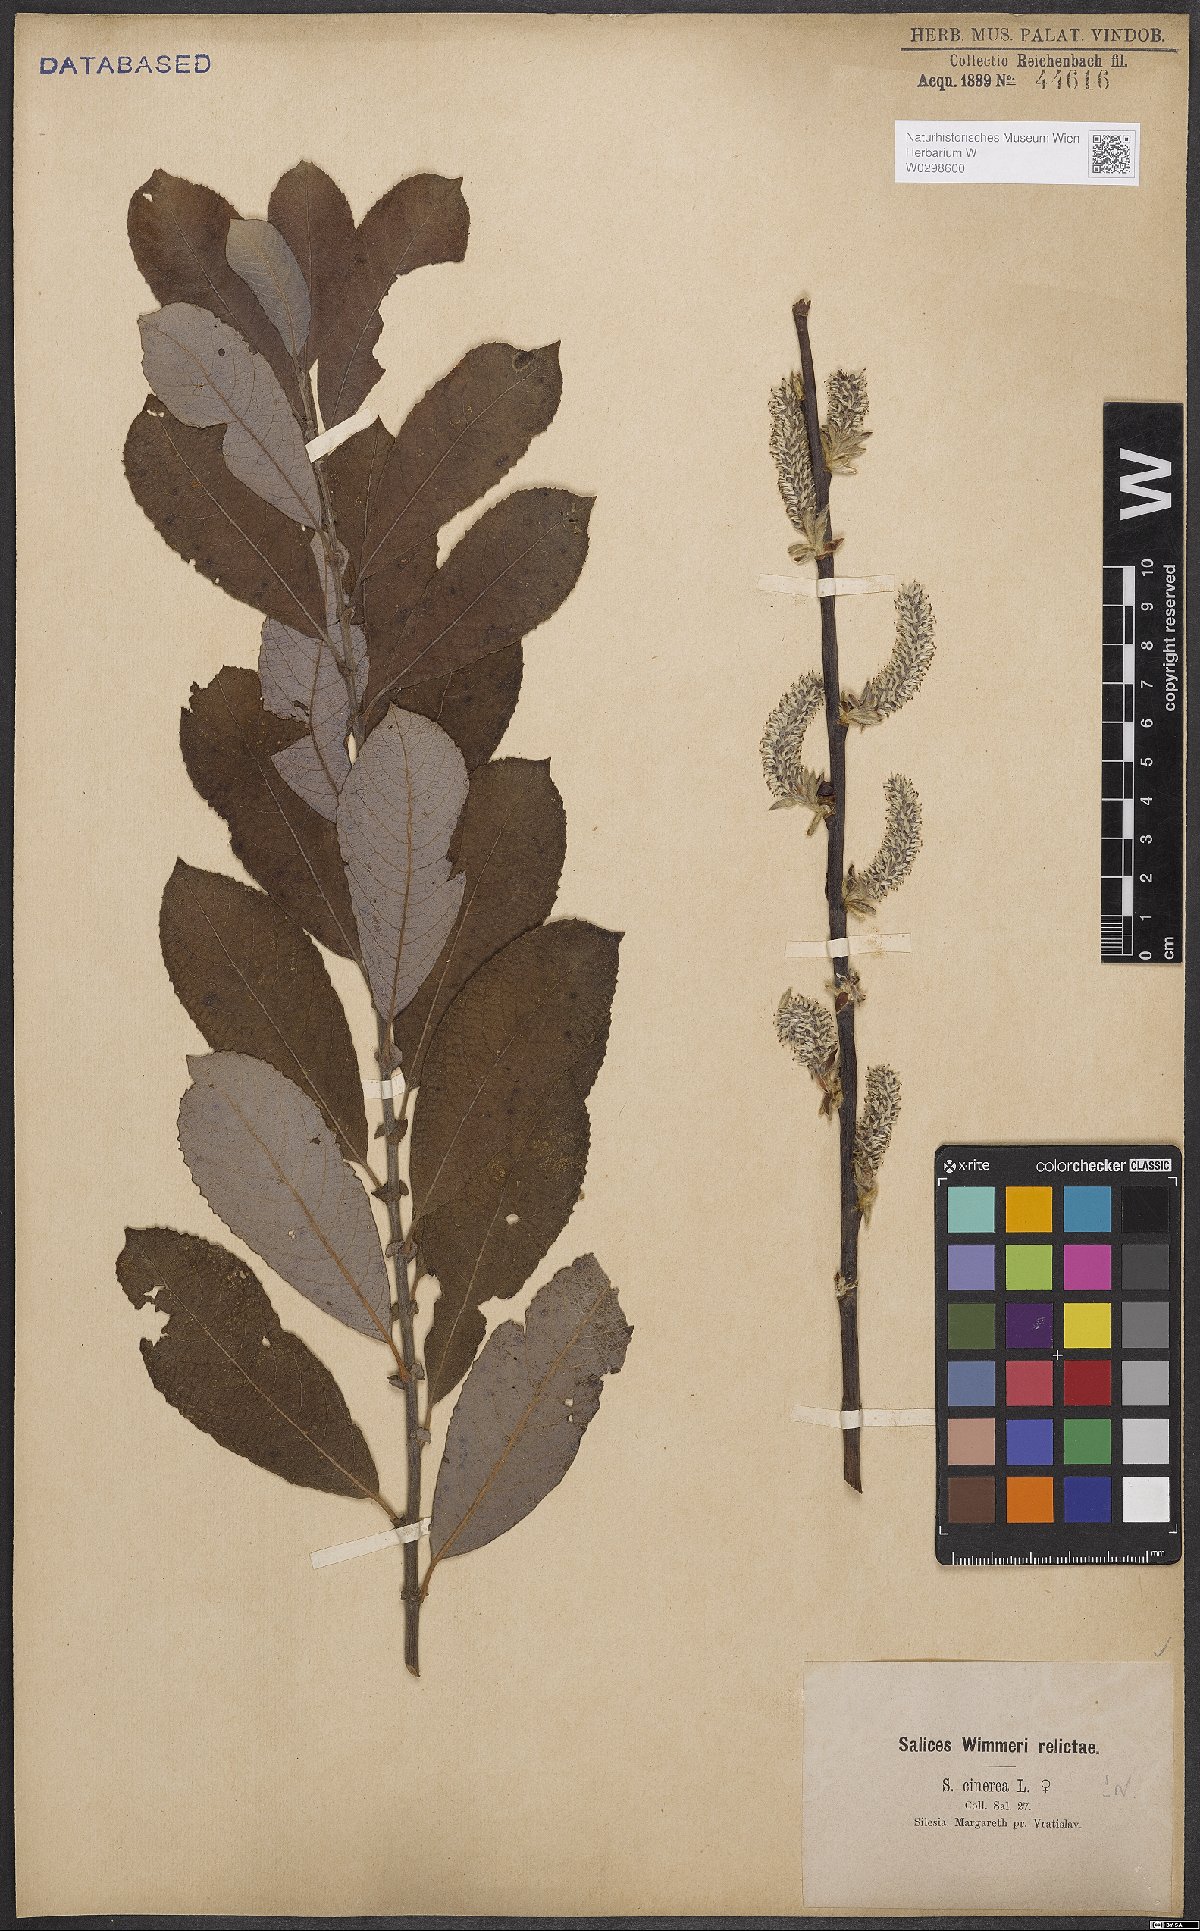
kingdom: Plantae
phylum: Tracheophyta
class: Magnoliopsida
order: Malpighiales
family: Salicaceae
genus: Salix
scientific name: Salix cinerea
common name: Common sallow
